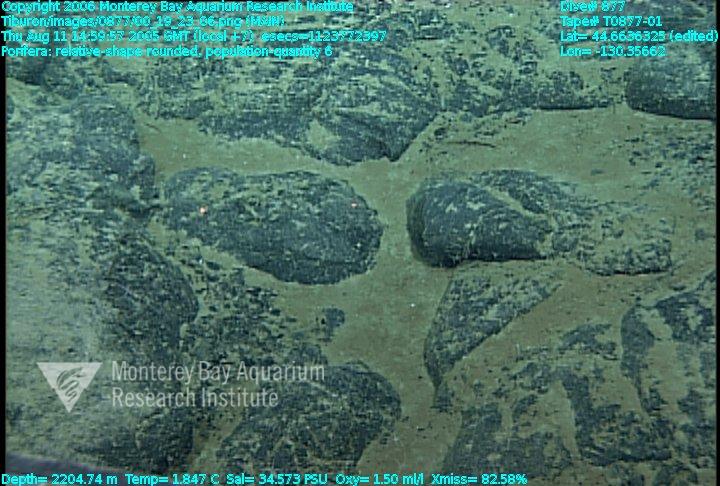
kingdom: Animalia
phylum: Porifera
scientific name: Porifera
